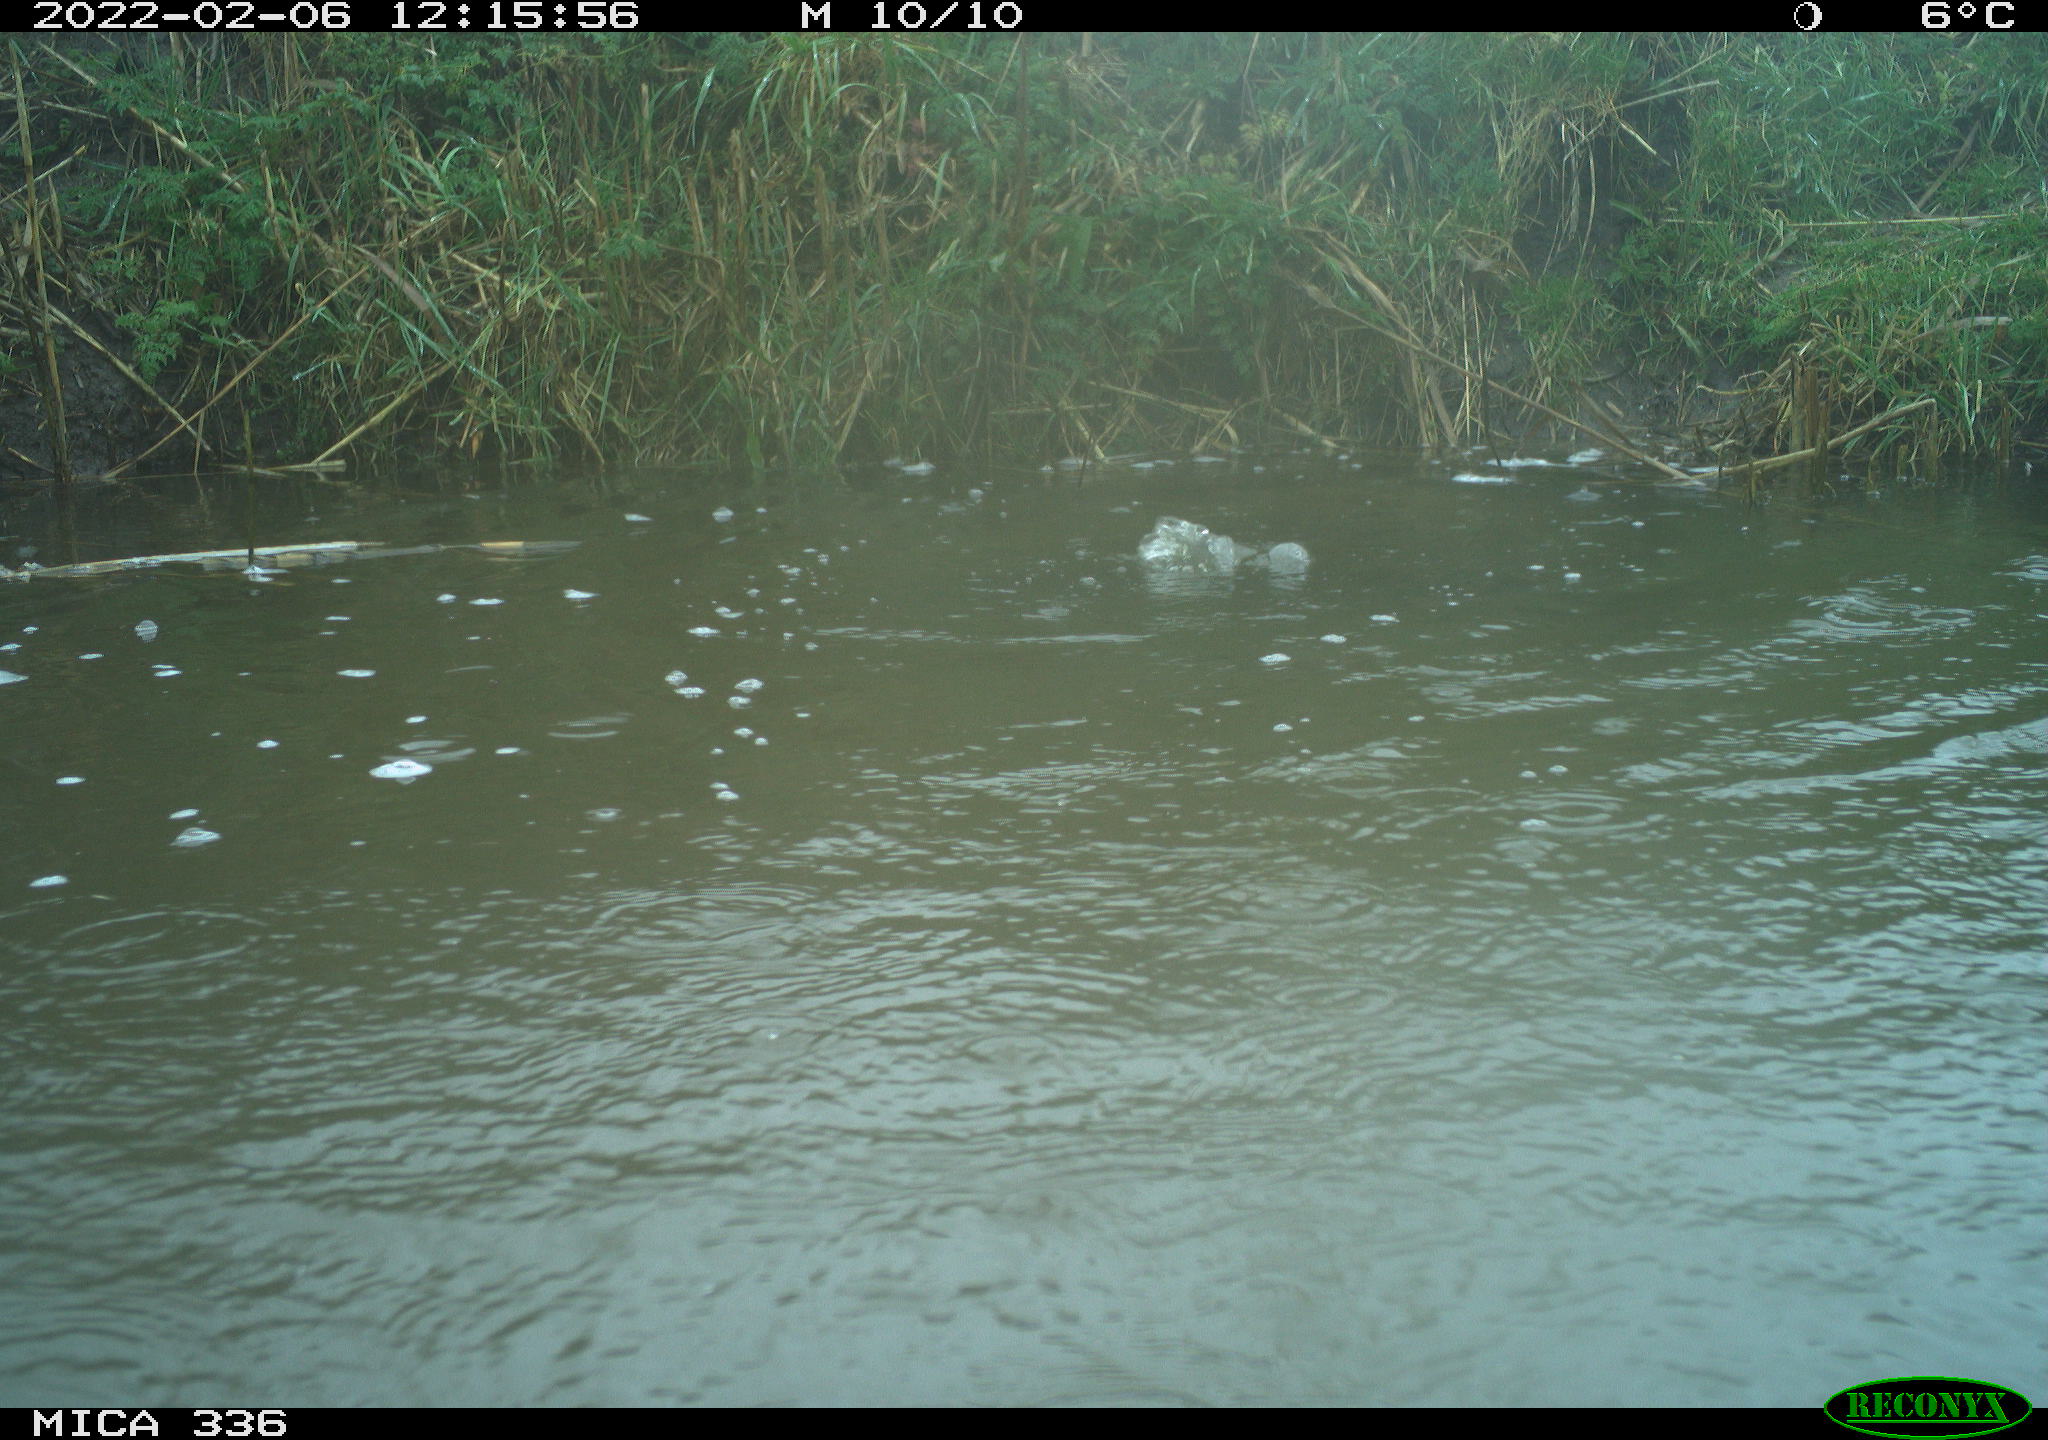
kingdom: Animalia
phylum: Chordata
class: Aves
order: Gruiformes
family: Rallidae
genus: Gallinula
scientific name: Gallinula chloropus
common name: Common moorhen
